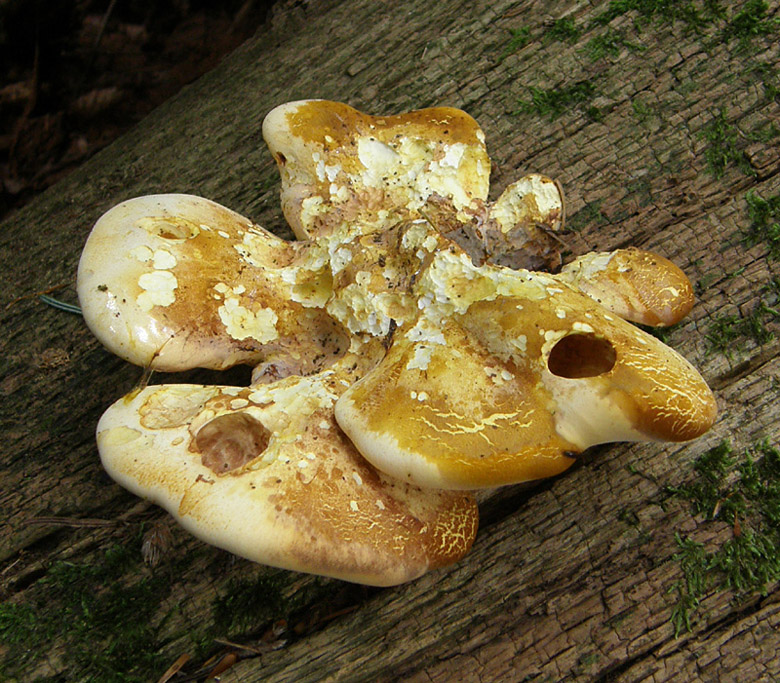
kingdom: Fungi
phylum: Basidiomycota
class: Agaricomycetes
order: Polyporales
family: Fomitopsidaceae
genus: Buglossoporus
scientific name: Buglossoporus quercinus
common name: egetunge
